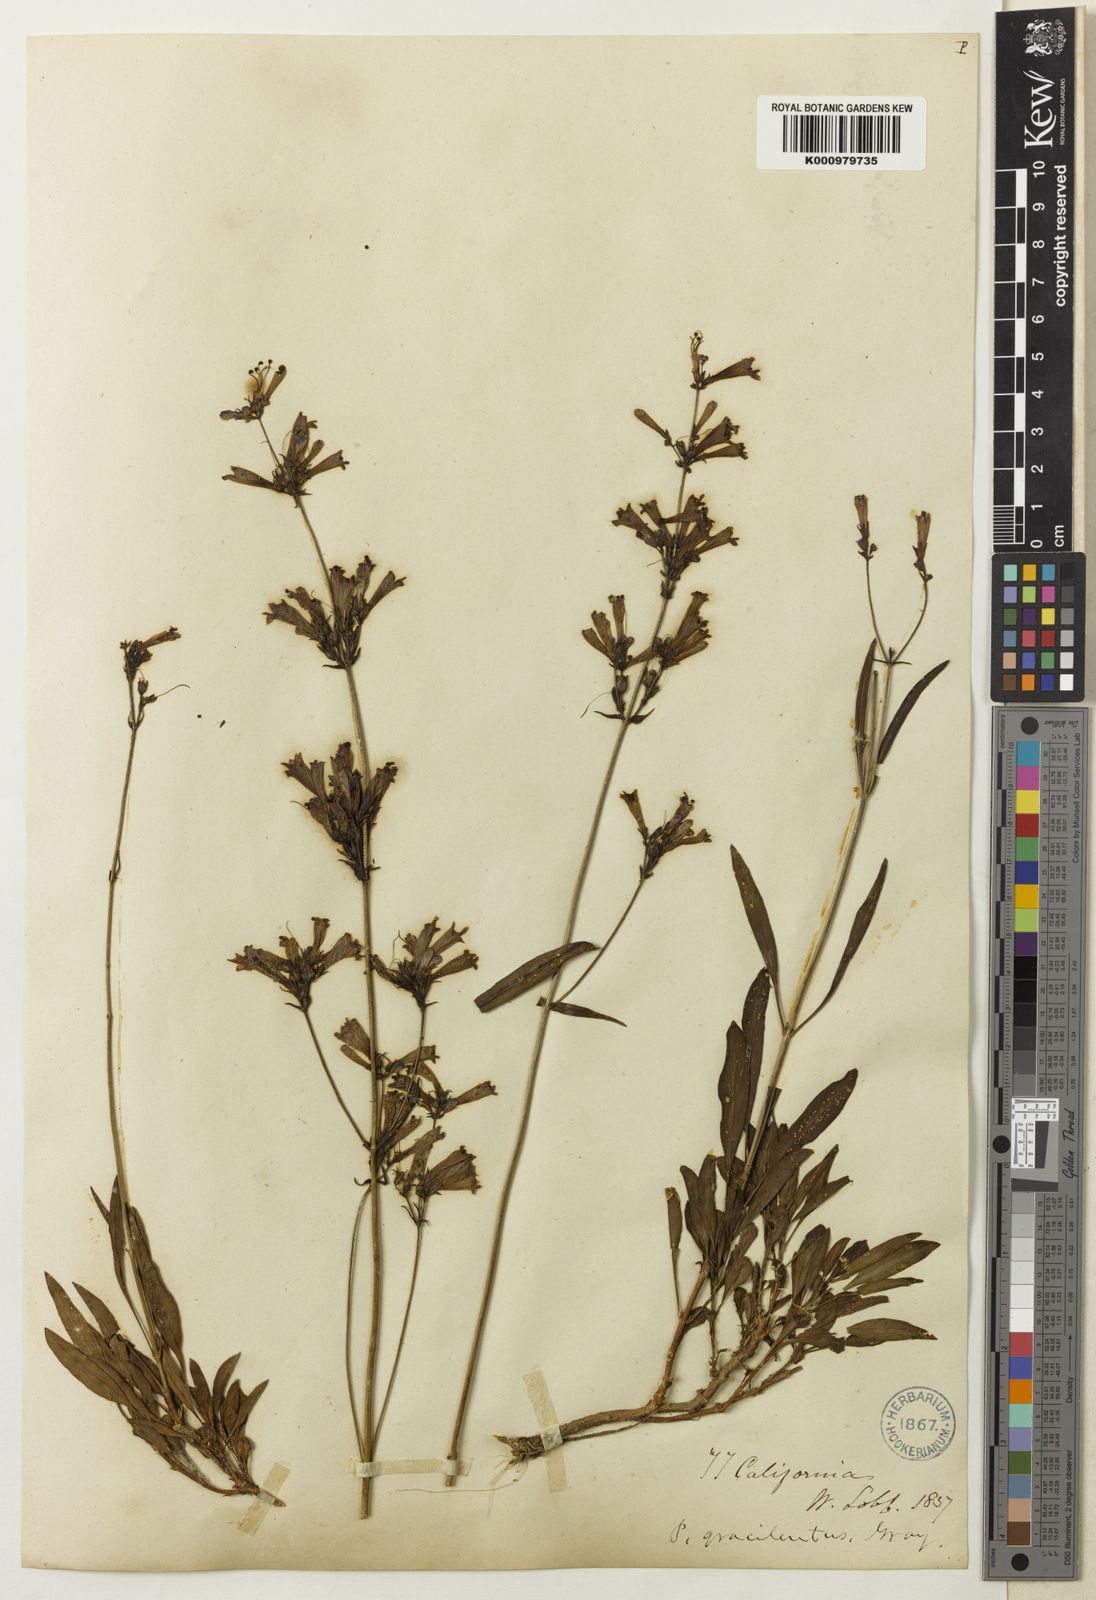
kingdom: Plantae
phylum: Tracheophyta
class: Magnoliopsida
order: Lamiales
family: Plantaginaceae
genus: Penstemon
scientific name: Penstemon gracilentus
